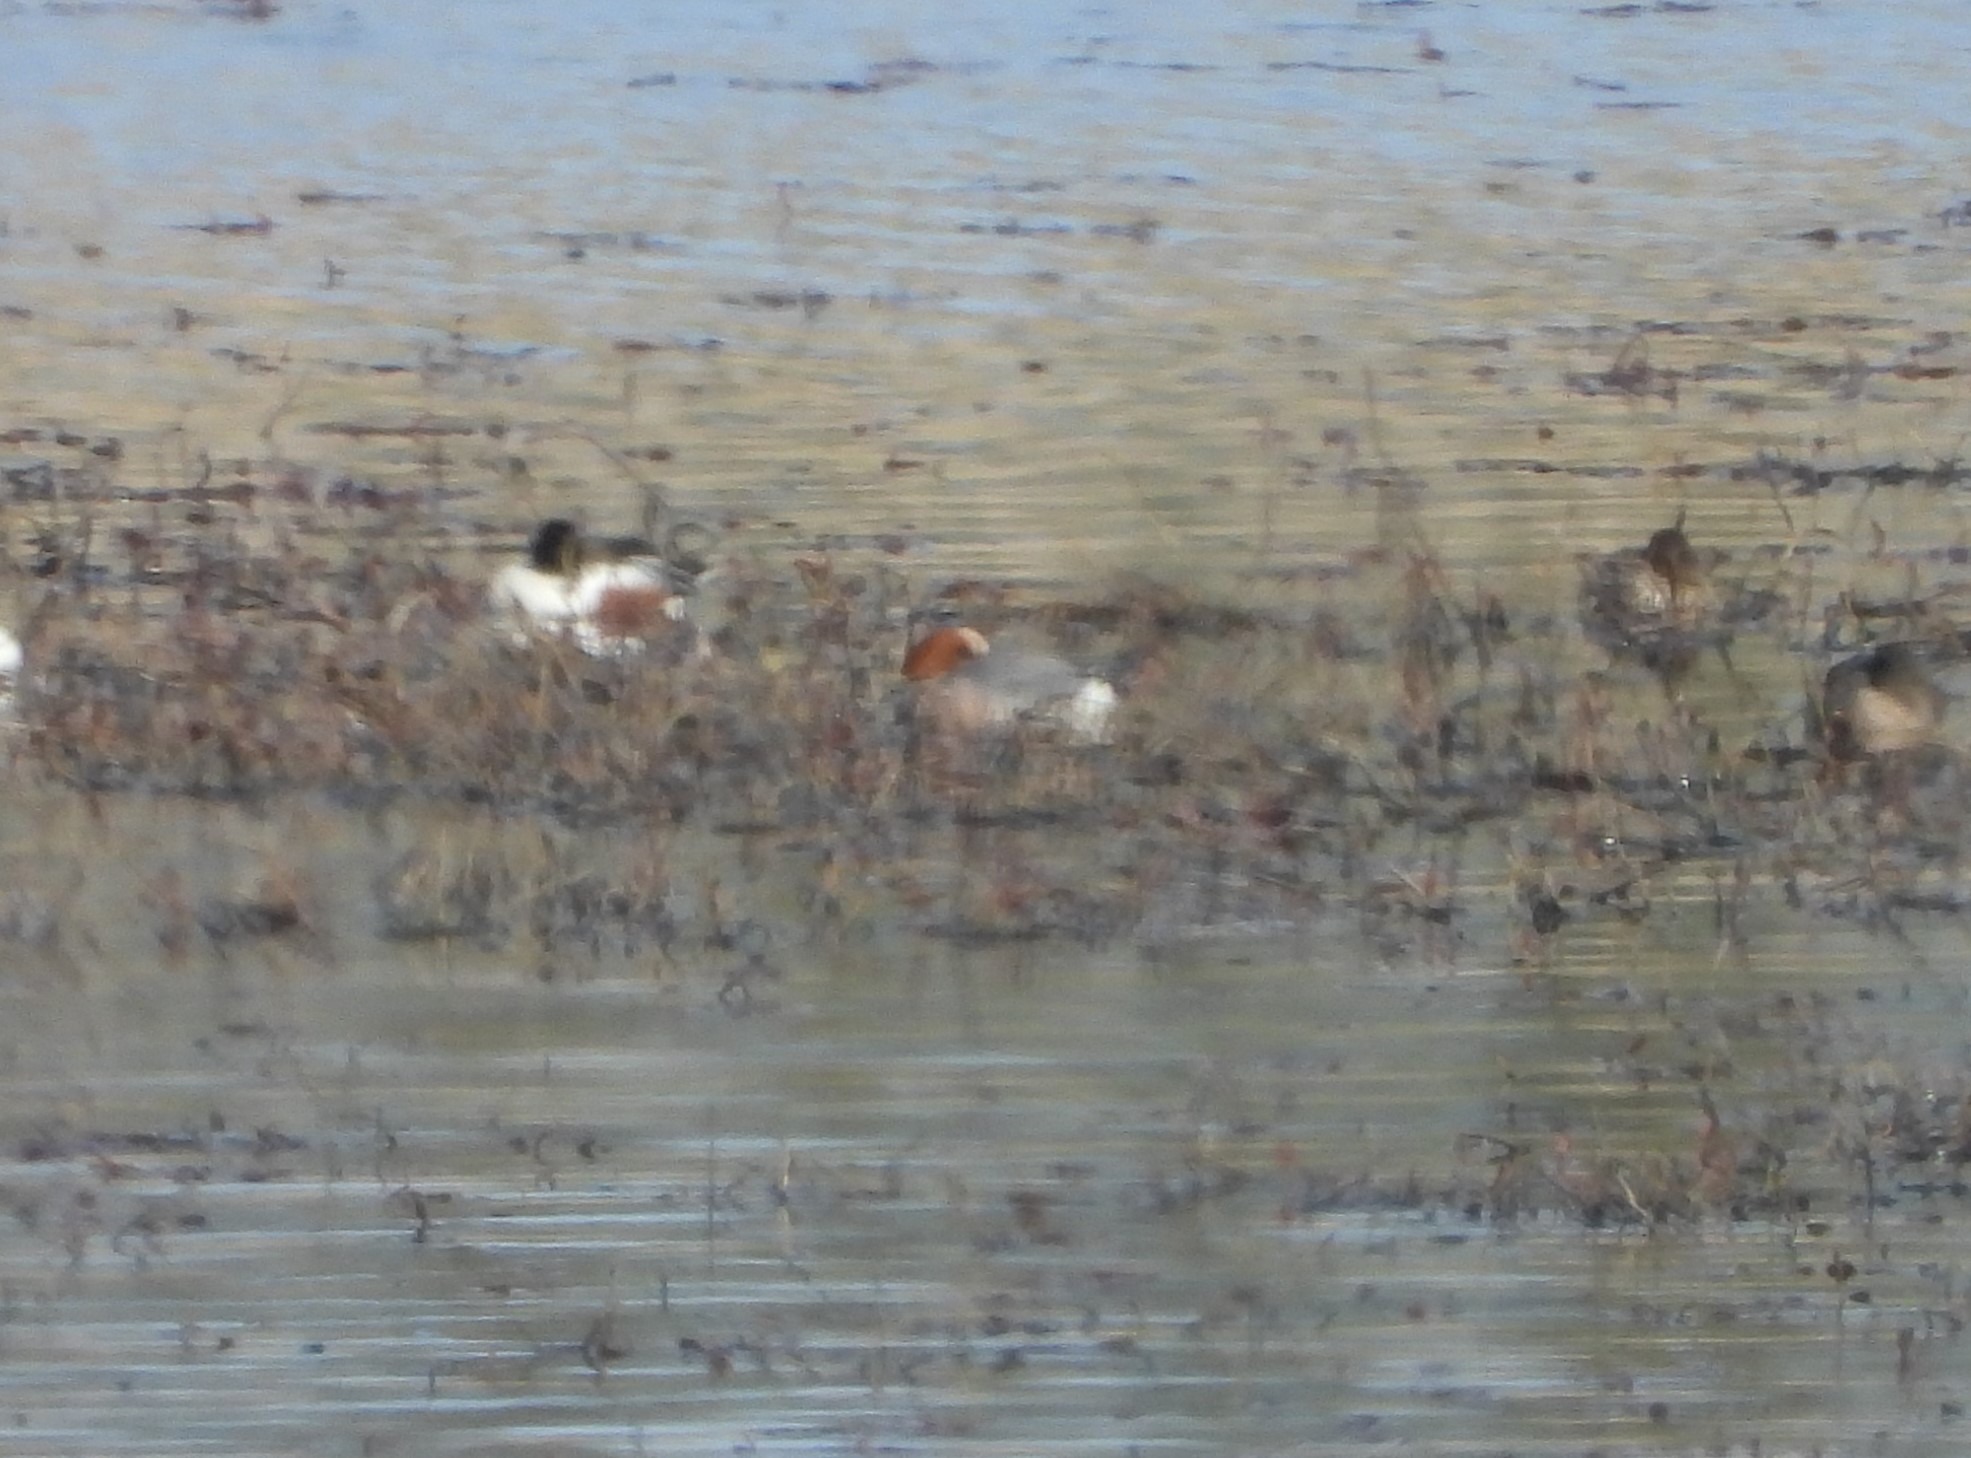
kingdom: Animalia
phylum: Chordata
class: Aves
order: Anseriformes
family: Anatidae
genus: Mareca
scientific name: Mareca penelope
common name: Pibeand
